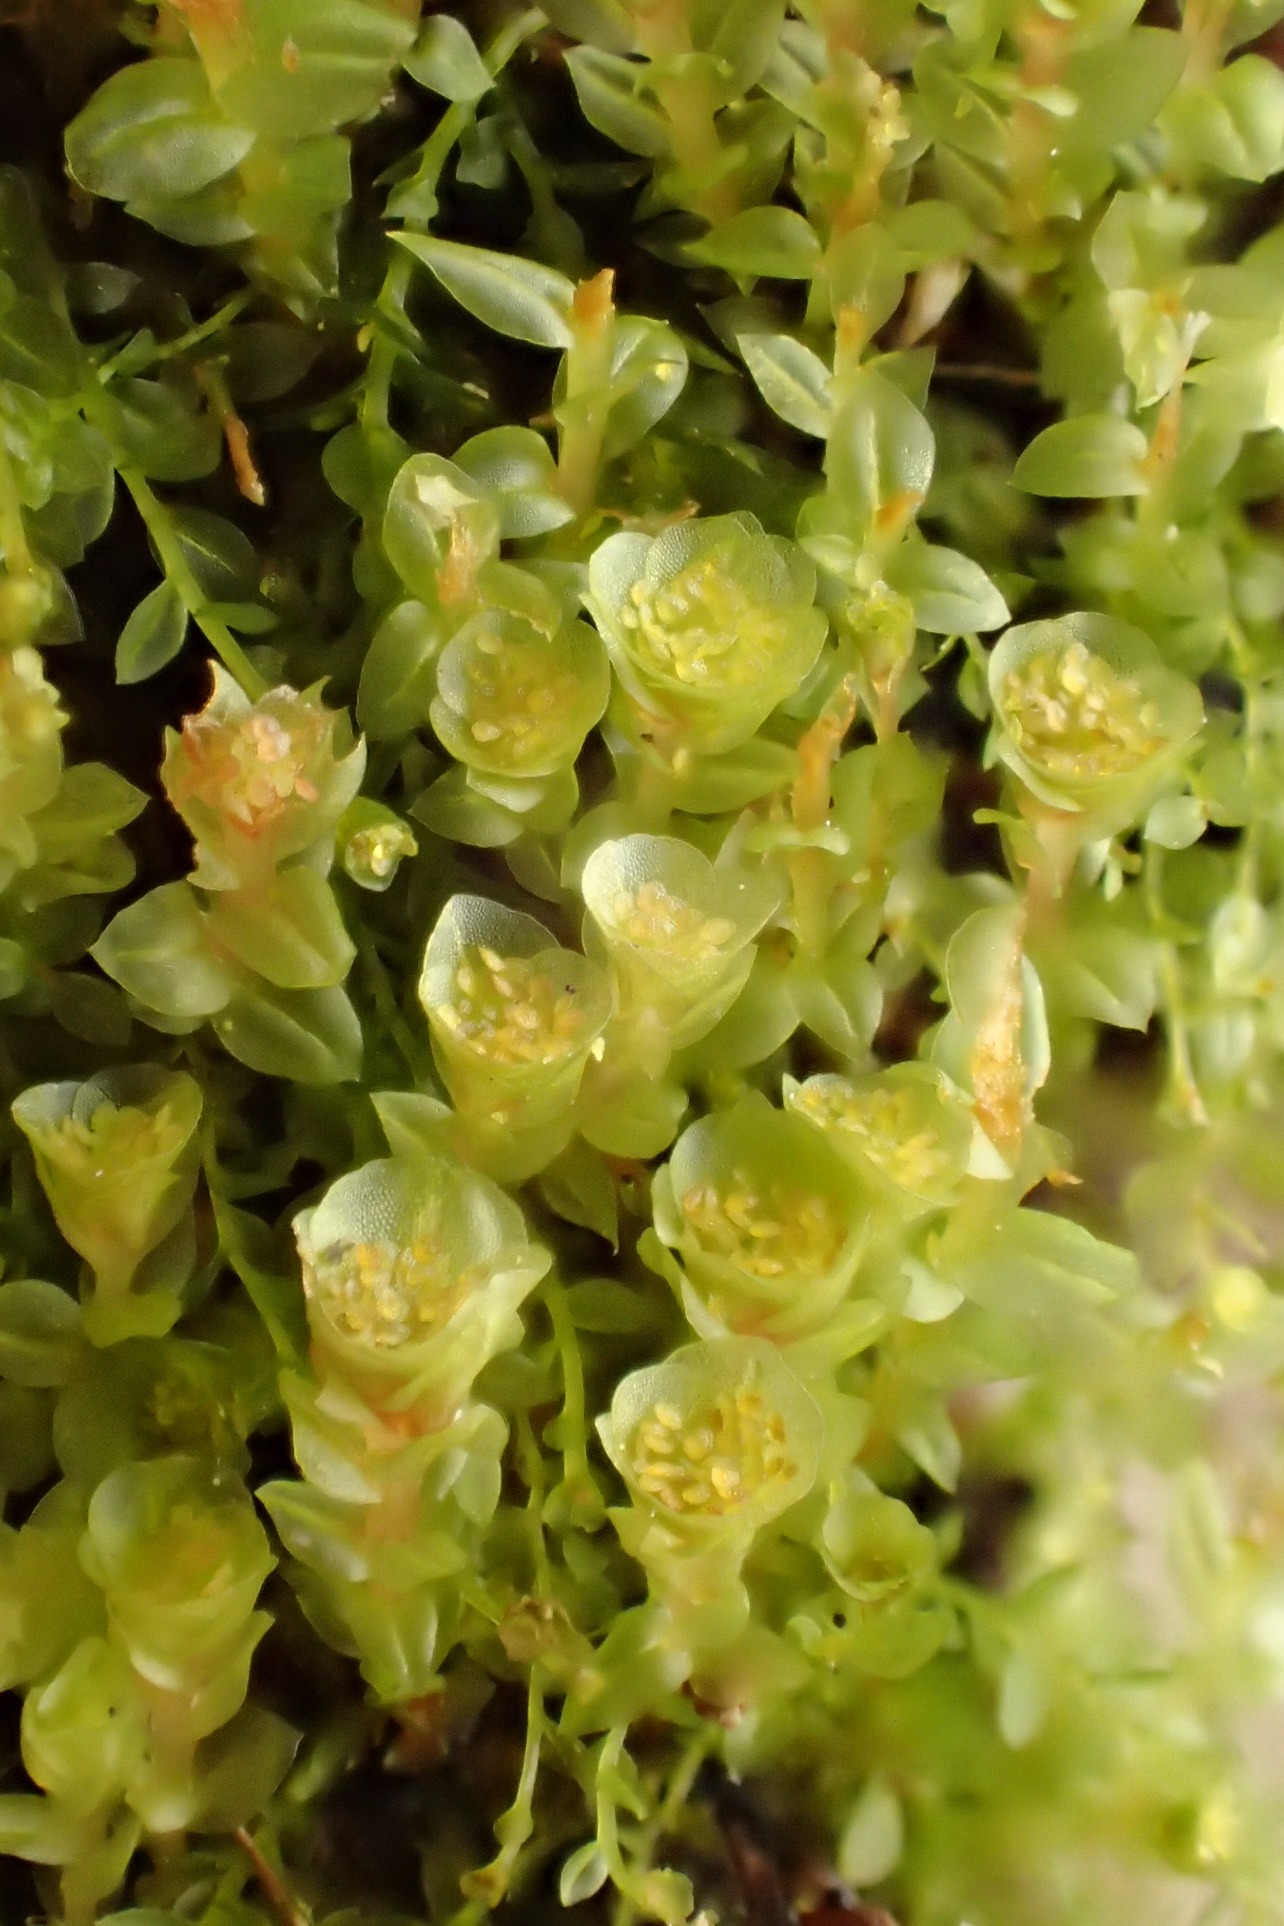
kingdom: Plantae
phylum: Bryophyta
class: Polytrichopsida
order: Tetraphidales
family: Tetraphidaceae
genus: Tetraphis
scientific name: Tetraphis pellucida
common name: Almindelig firtand
